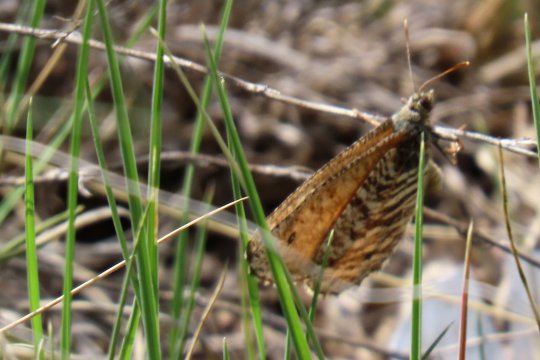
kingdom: Animalia
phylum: Arthropoda
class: Insecta
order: Lepidoptera
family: Nymphalidae
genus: Oeneis
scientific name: Oeneis uhleri
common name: Uhler's Arctic
